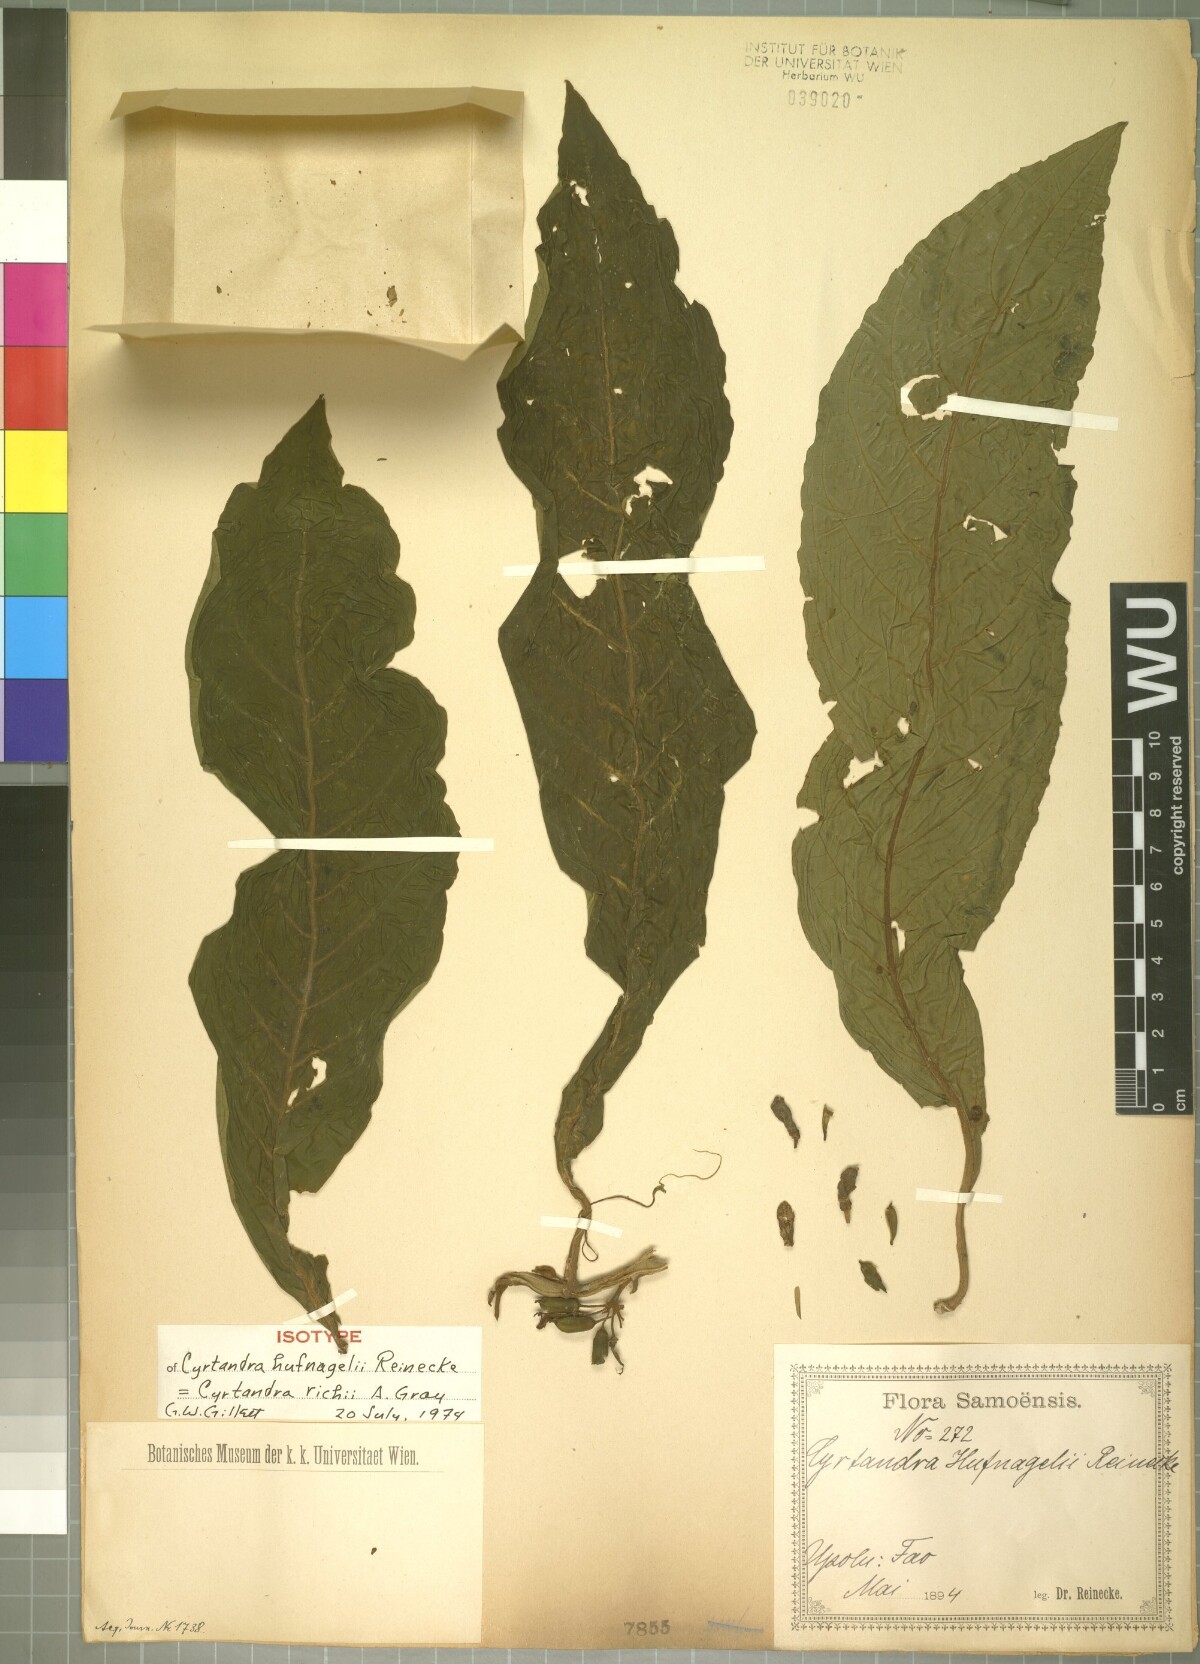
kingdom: Plantae
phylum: Tracheophyta
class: Magnoliopsida
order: Lamiales
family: Gesneriaceae
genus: Cyrtandra
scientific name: Cyrtandra richii
